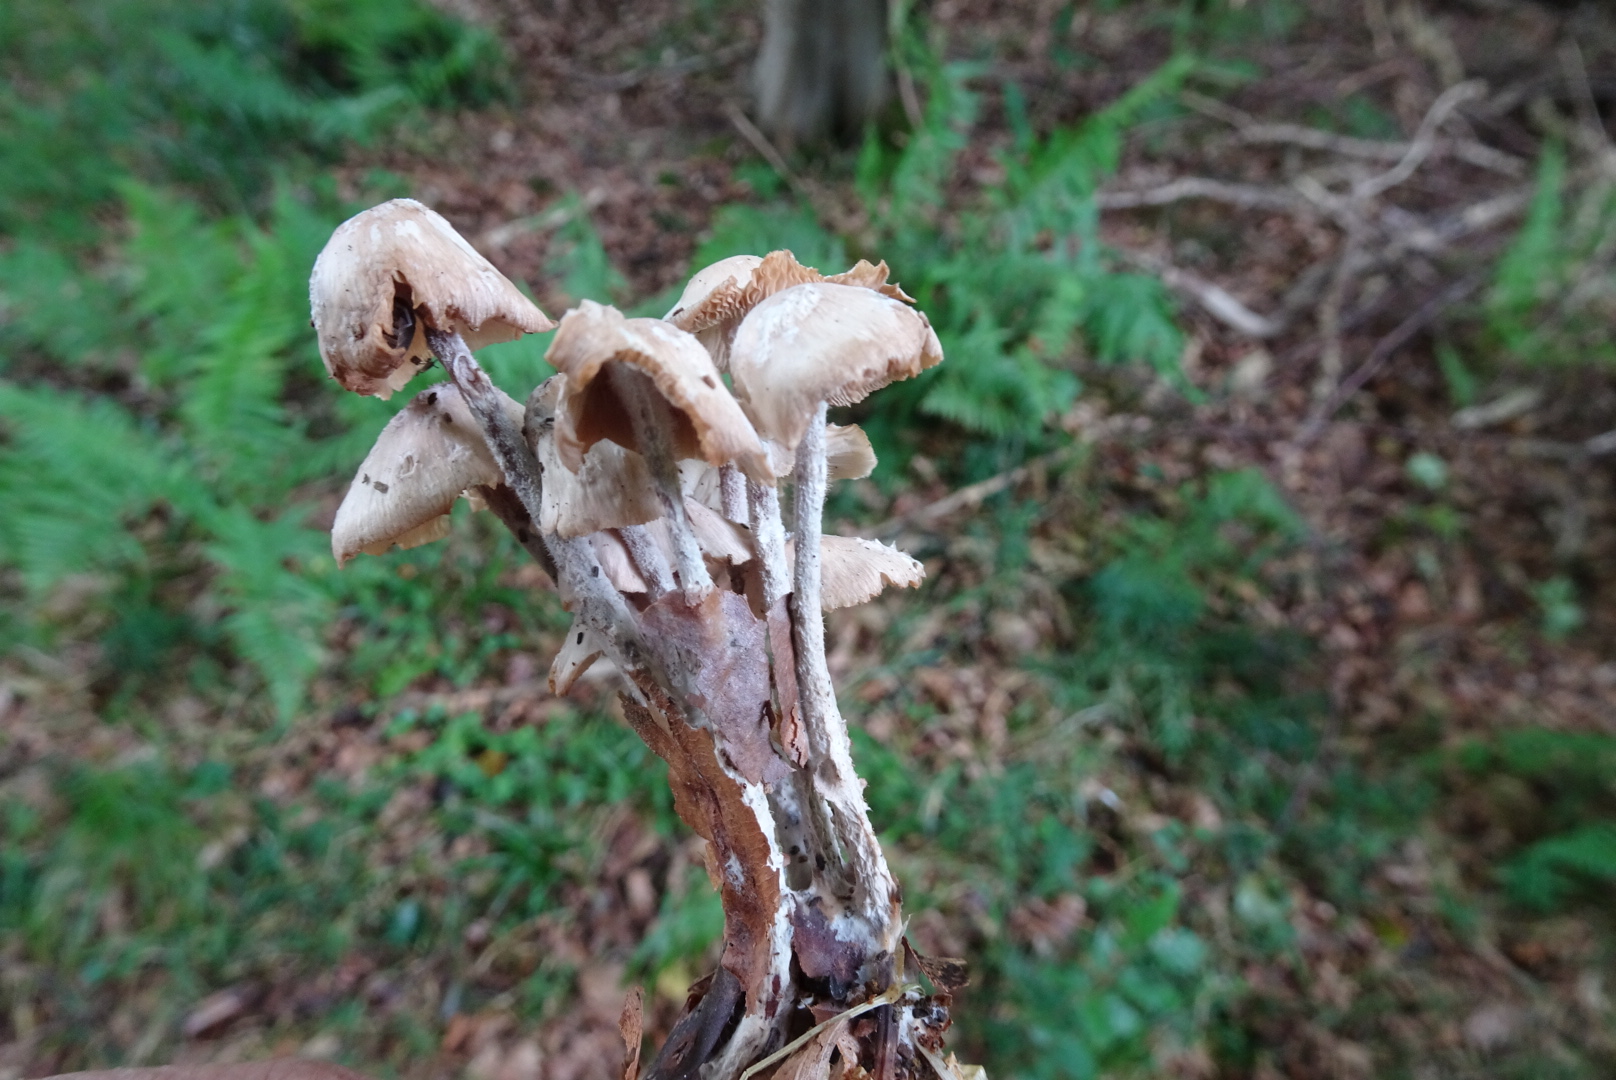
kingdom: Fungi
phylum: Basidiomycota
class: Agaricomycetes
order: Agaricales
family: Omphalotaceae
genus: Collybiopsis
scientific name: Collybiopsis confluens
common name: knippe-fladhat
